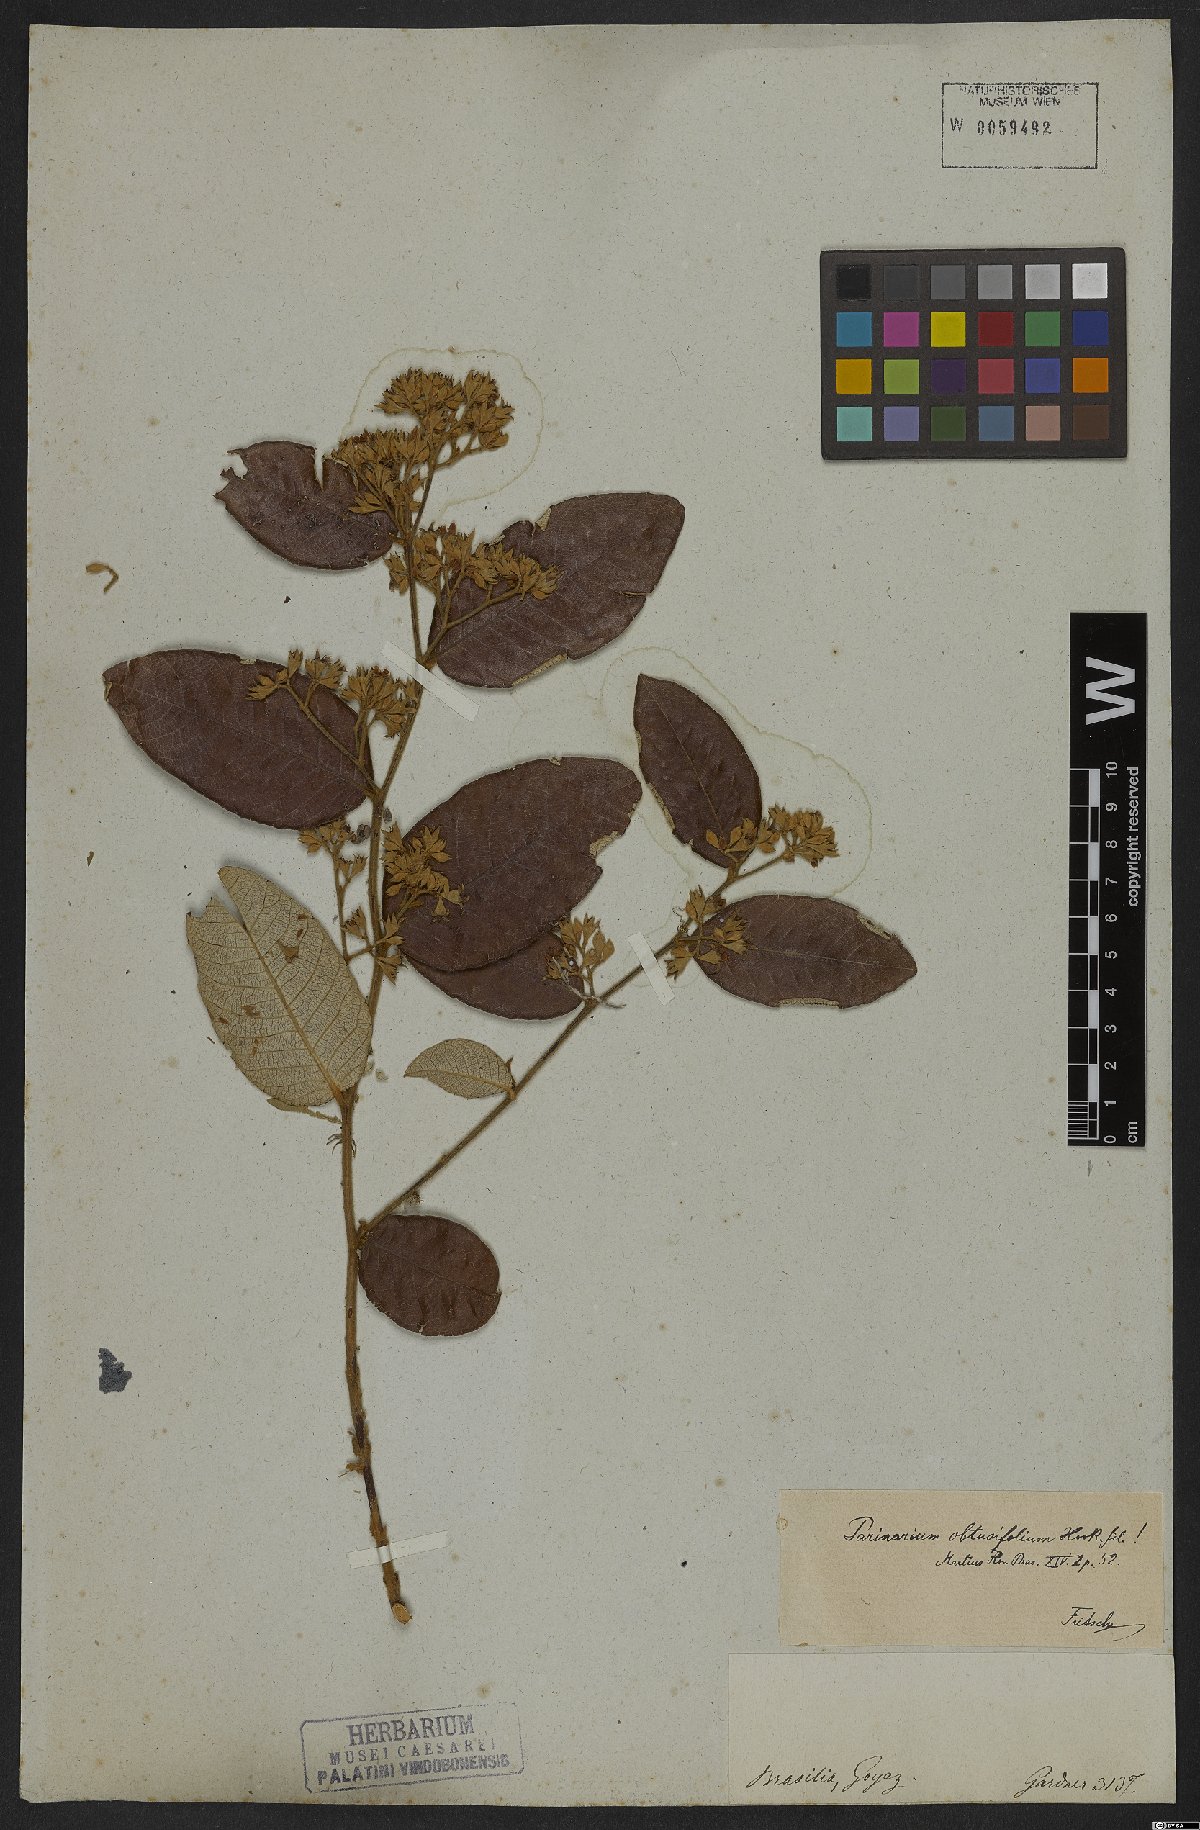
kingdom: Plantae
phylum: Tracheophyta
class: Magnoliopsida
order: Malpighiales
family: Chrysobalanaceae
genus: Parinari
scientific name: Parinari obtusifolium
